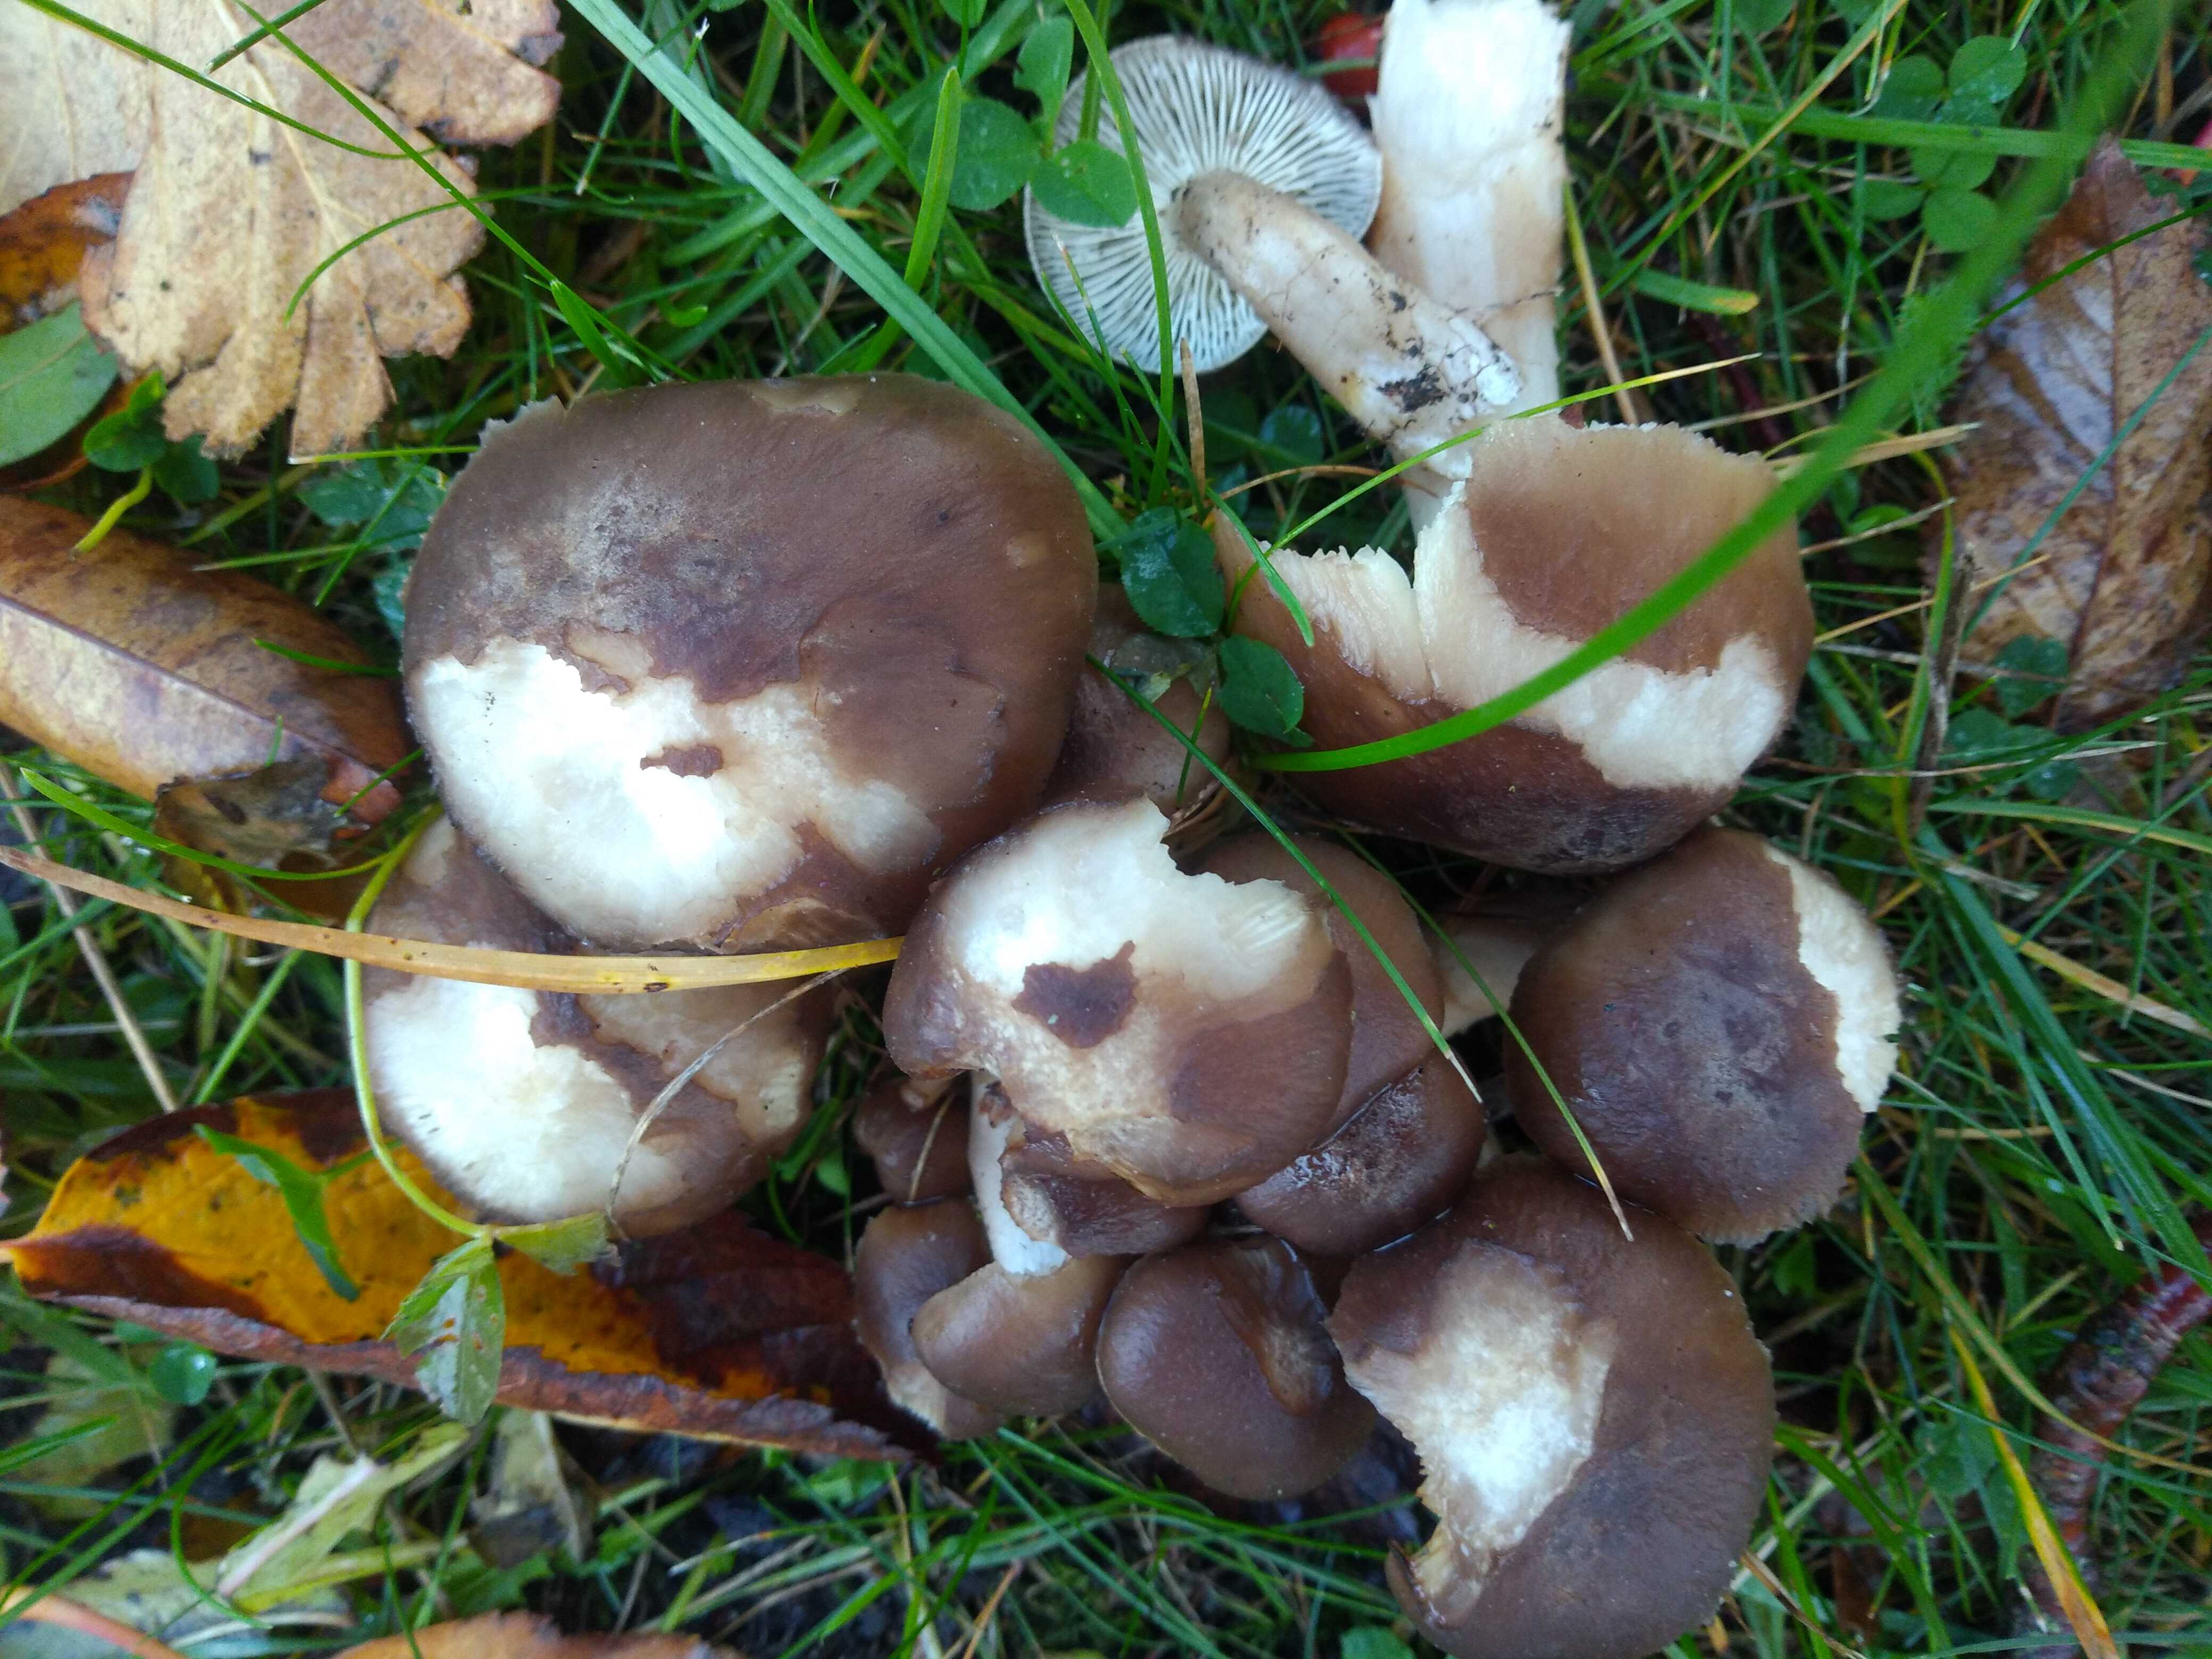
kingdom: Fungi
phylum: Basidiomycota
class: Agaricomycetes
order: Agaricales
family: Lyophyllaceae
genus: Lyophyllum
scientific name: Lyophyllum decastes
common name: røggrå gråblad
